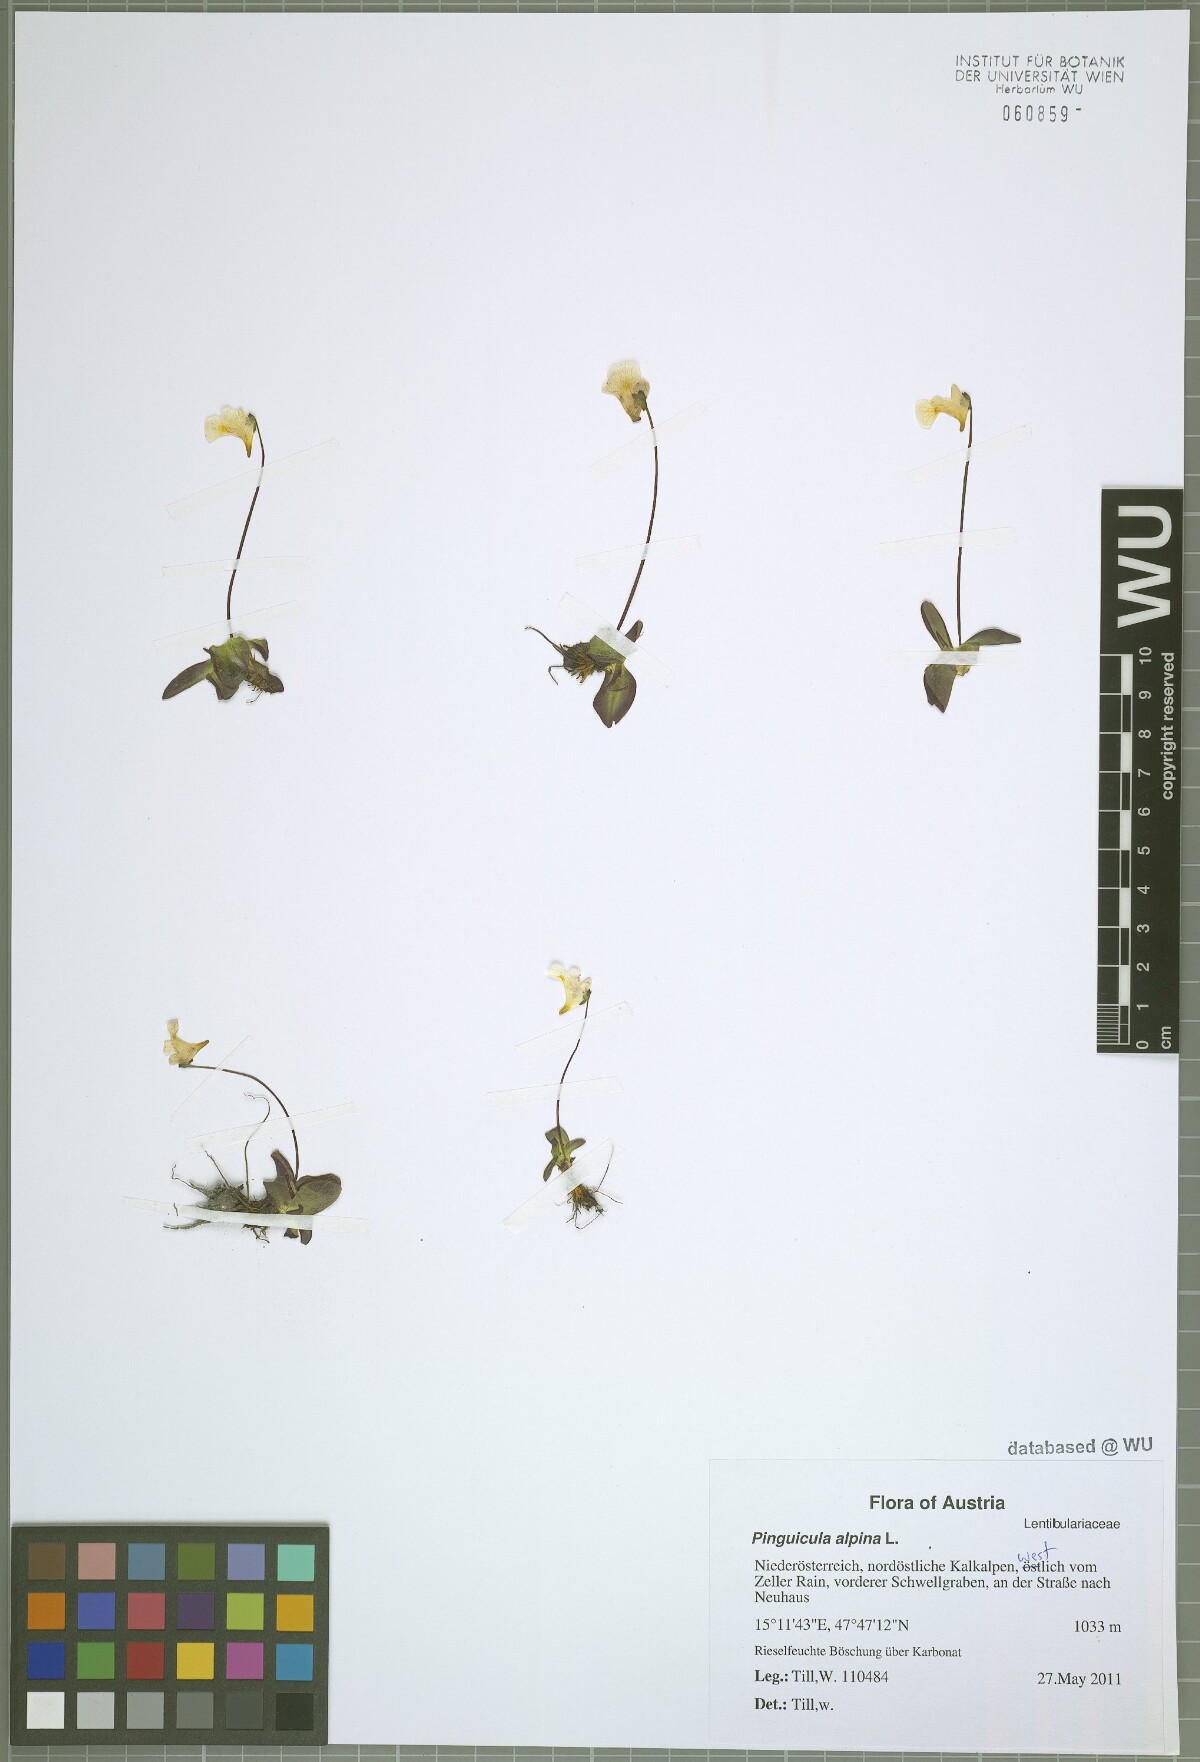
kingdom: Plantae
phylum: Tracheophyta
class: Magnoliopsida
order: Lamiales
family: Lentibulariaceae
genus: Pinguicula
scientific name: Pinguicula alpina
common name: Alpine butterwort
